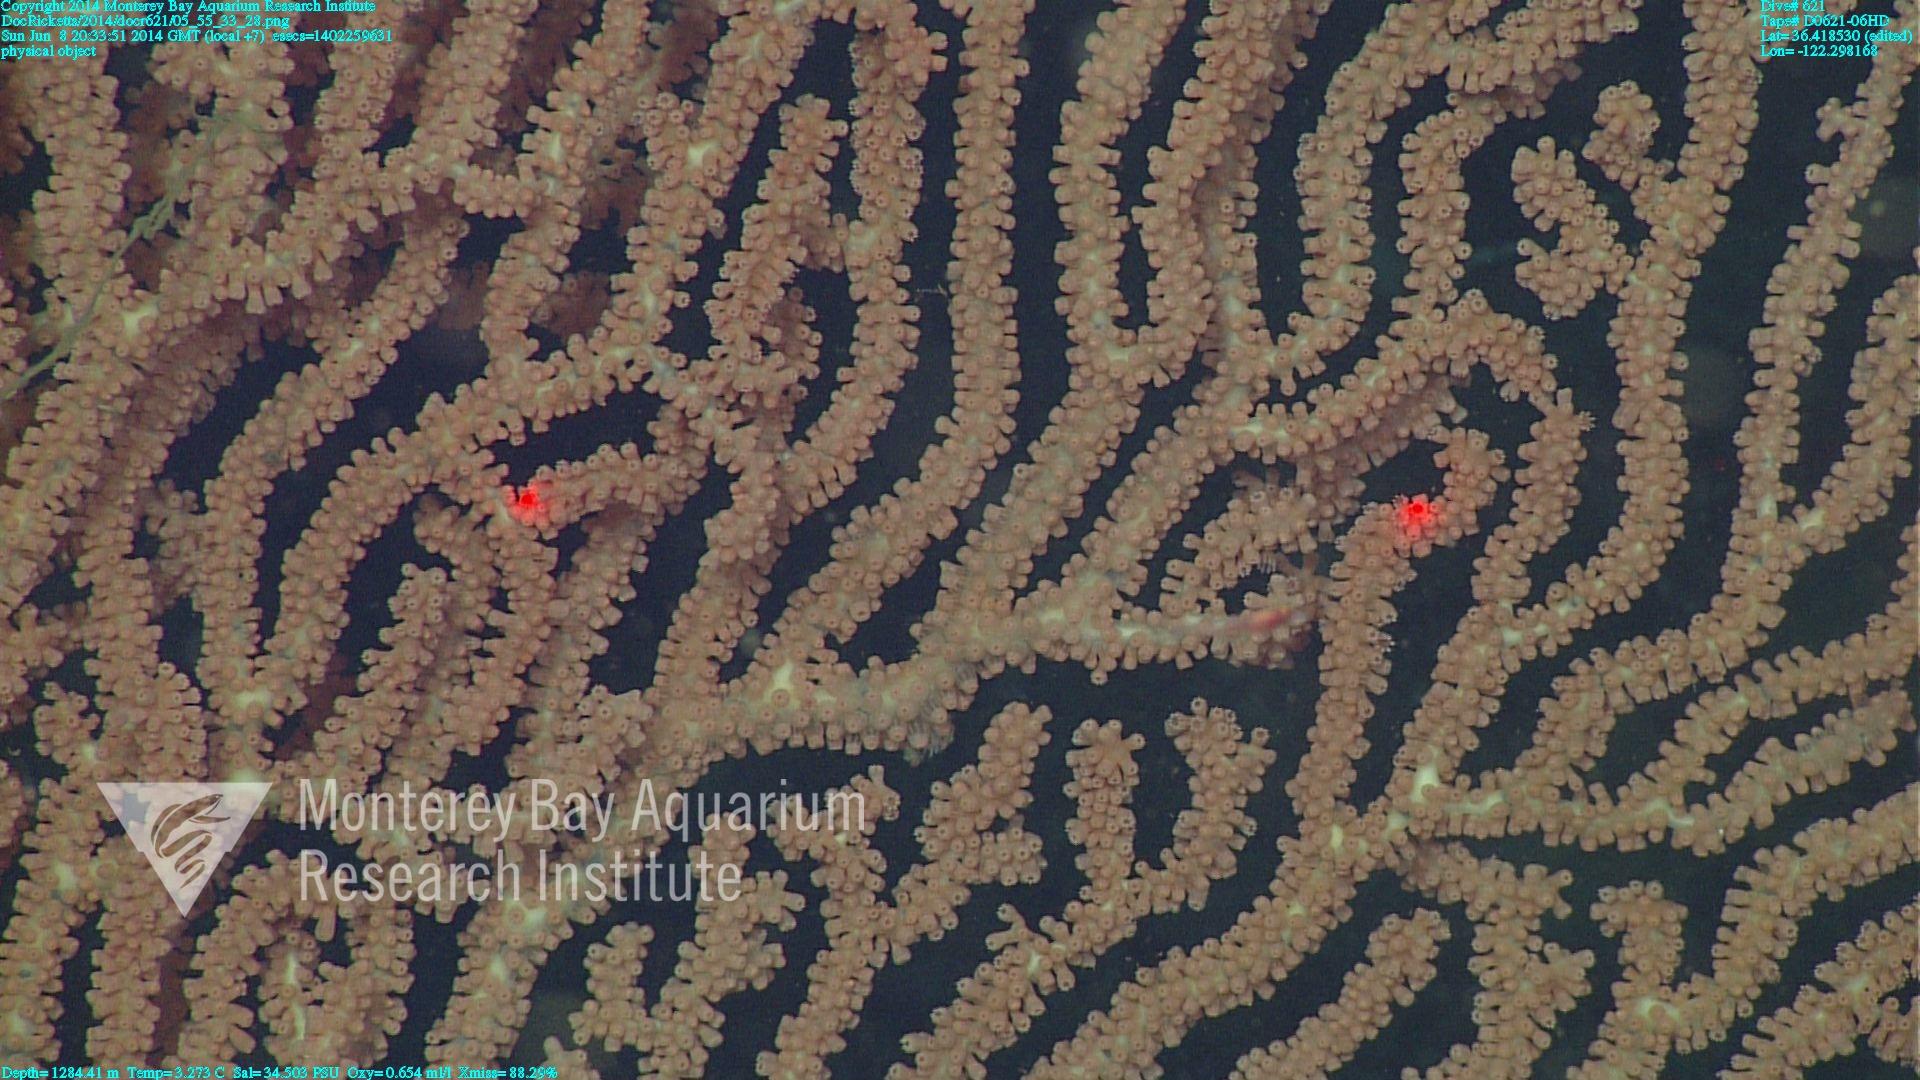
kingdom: Animalia
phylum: Cnidaria
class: Anthozoa
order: Scleralcyonacea
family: Keratoisididae
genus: Keratoisis
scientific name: Keratoisis
